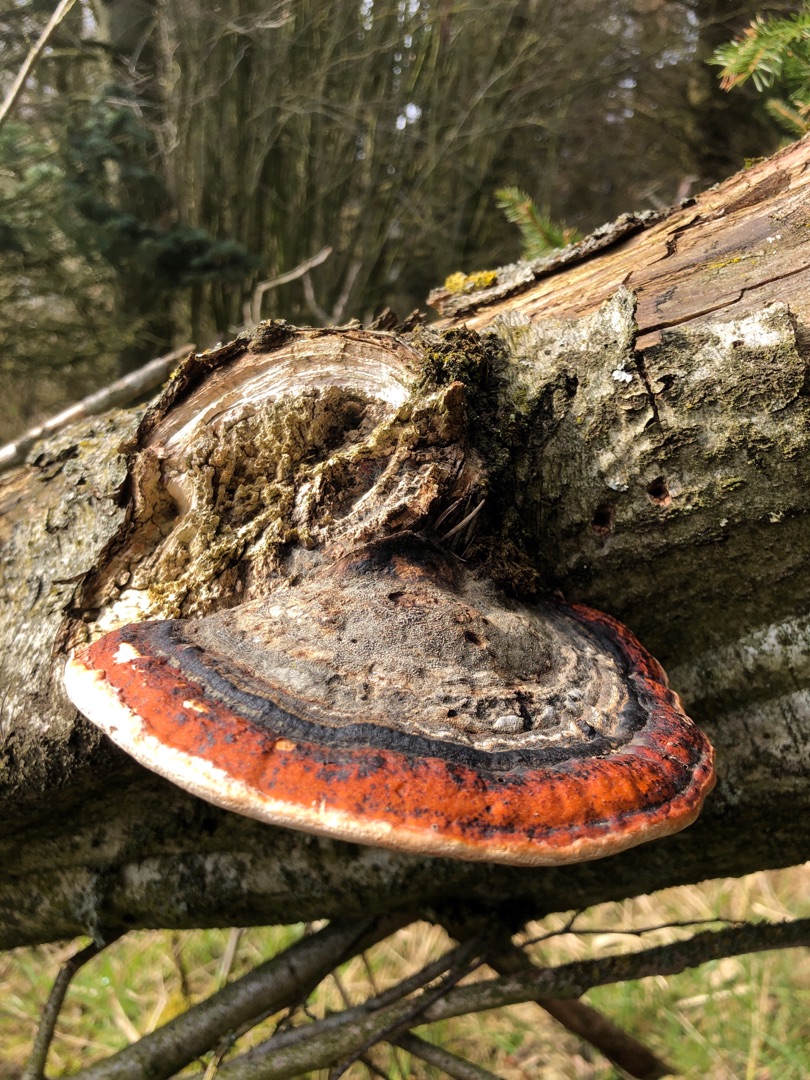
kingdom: Fungi
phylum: Basidiomycota
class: Agaricomycetes
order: Polyporales
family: Fomitopsidaceae
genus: Fomitopsis
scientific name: Fomitopsis pinicola
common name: Randbæltet hovporesvamp
